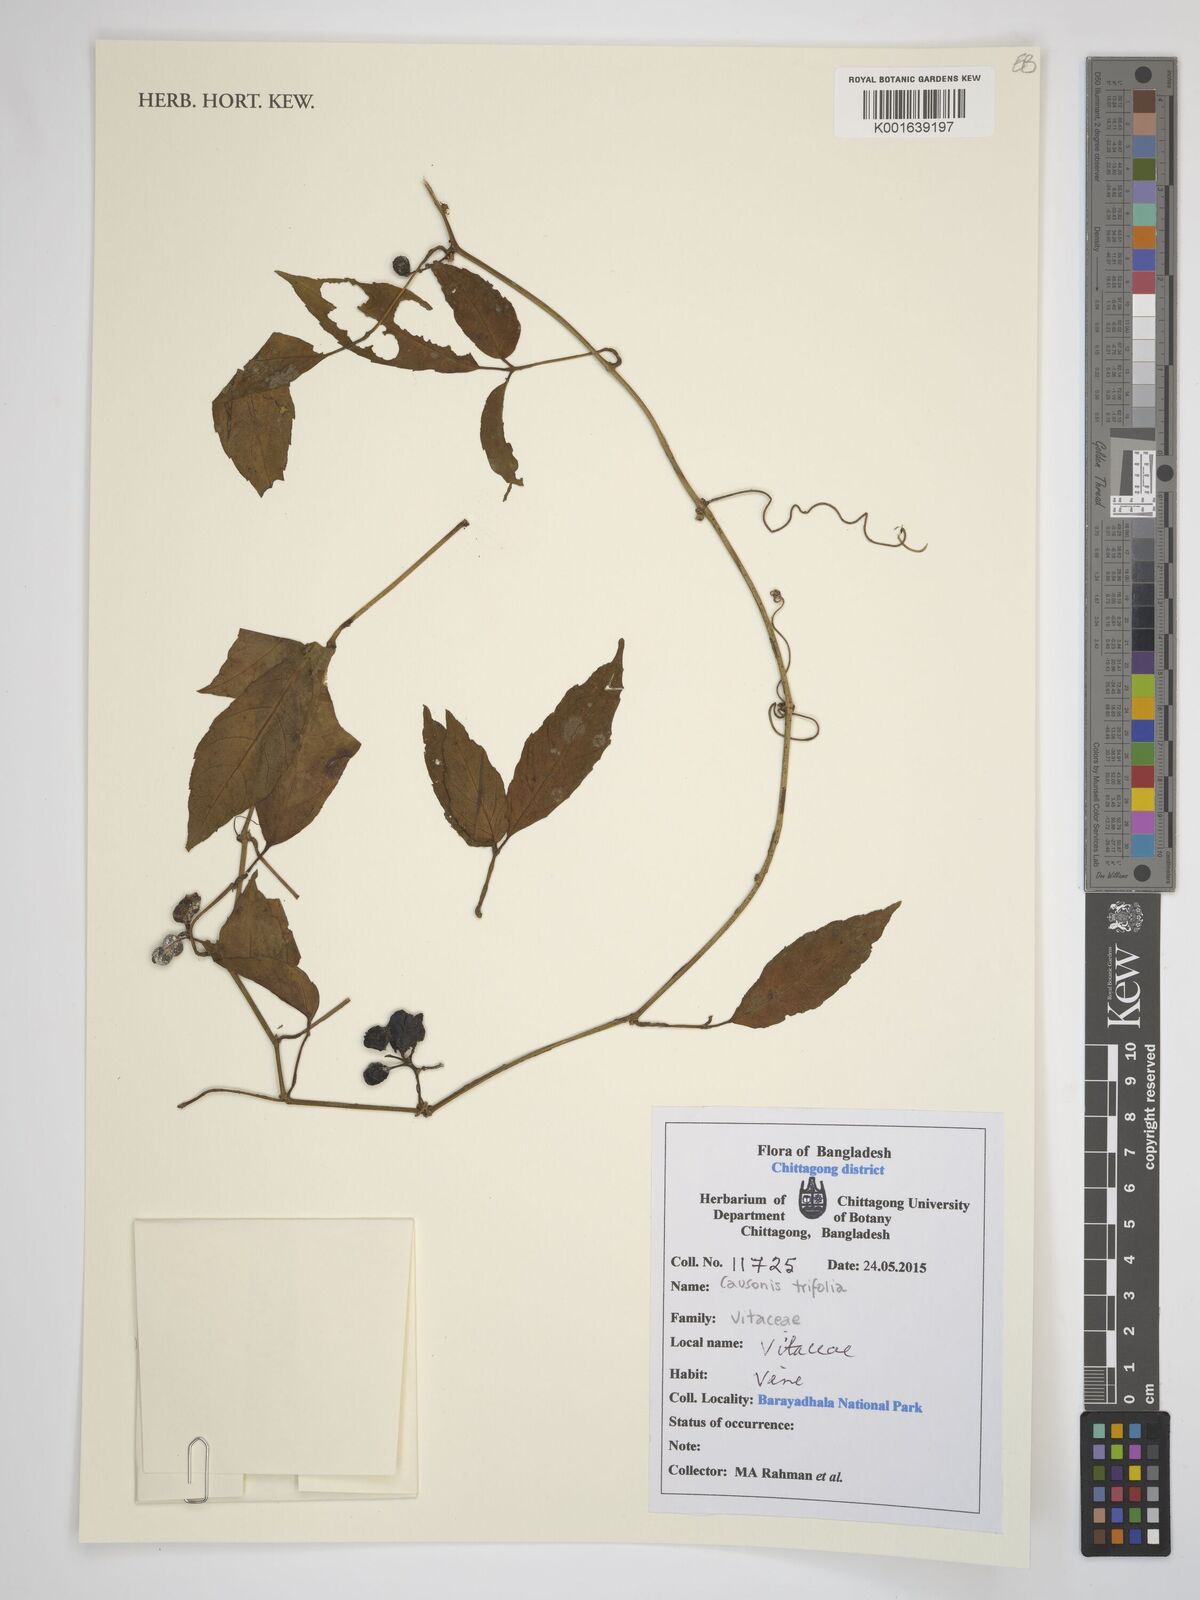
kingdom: Plantae
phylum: Tracheophyta
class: Magnoliopsida
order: Vitales
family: Vitaceae
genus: Causonis
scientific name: Causonis trifolia
